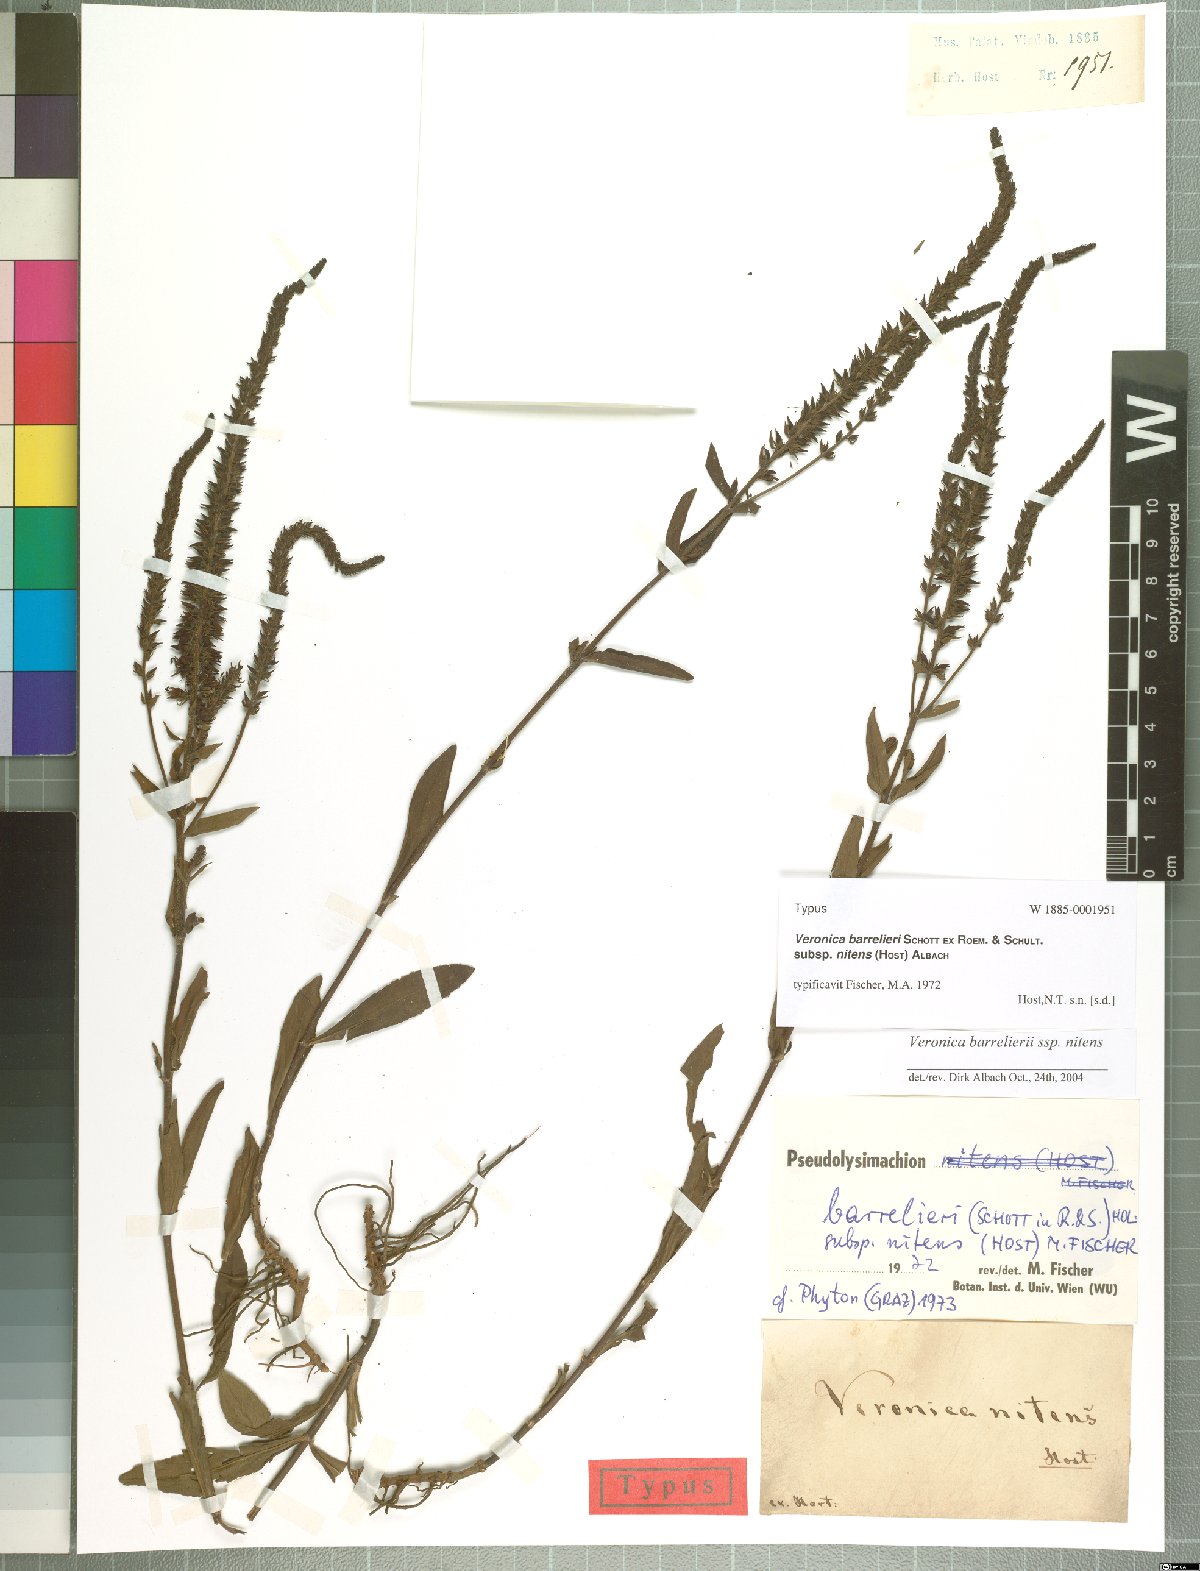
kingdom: Plantae
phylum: Tracheophyta
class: Magnoliopsida
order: Lamiales
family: Plantaginaceae
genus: Veronica
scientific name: Veronica barrelieri
